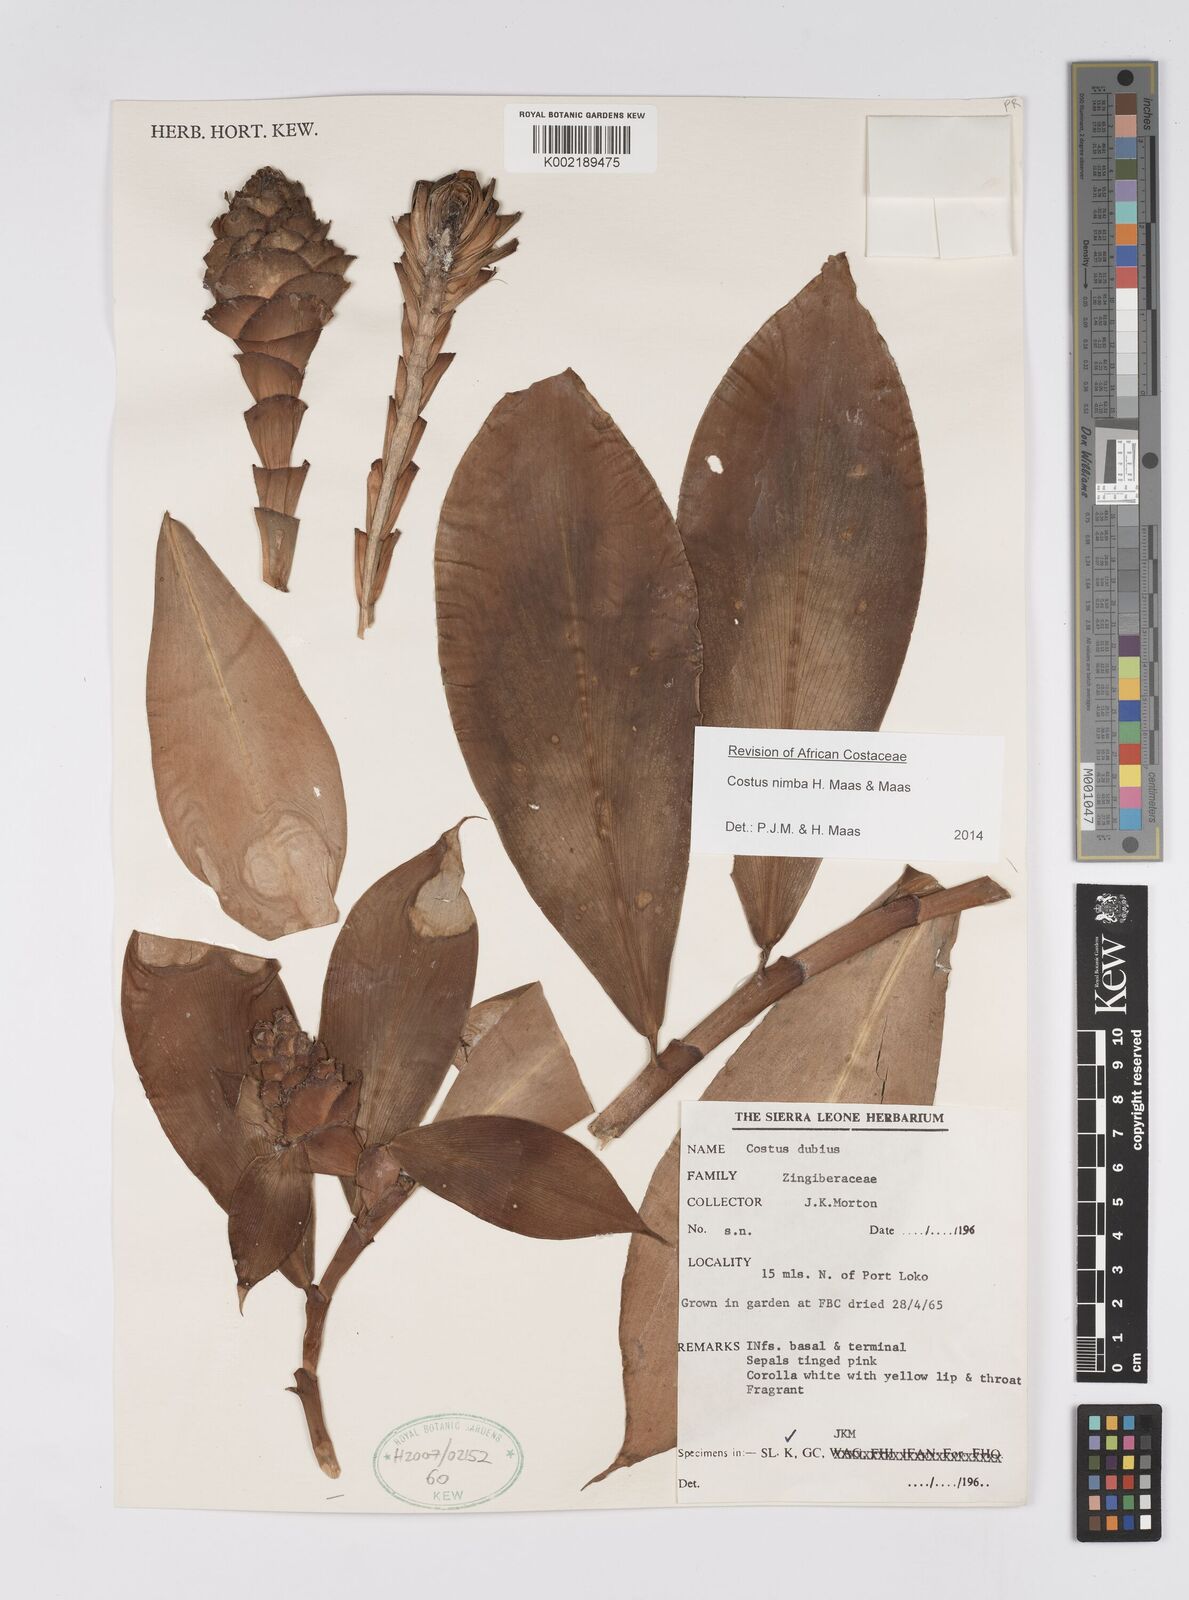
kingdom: Plantae
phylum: Tracheophyta
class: Liliopsida
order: Zingiberales
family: Costaceae
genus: Costus
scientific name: Costus nimba
